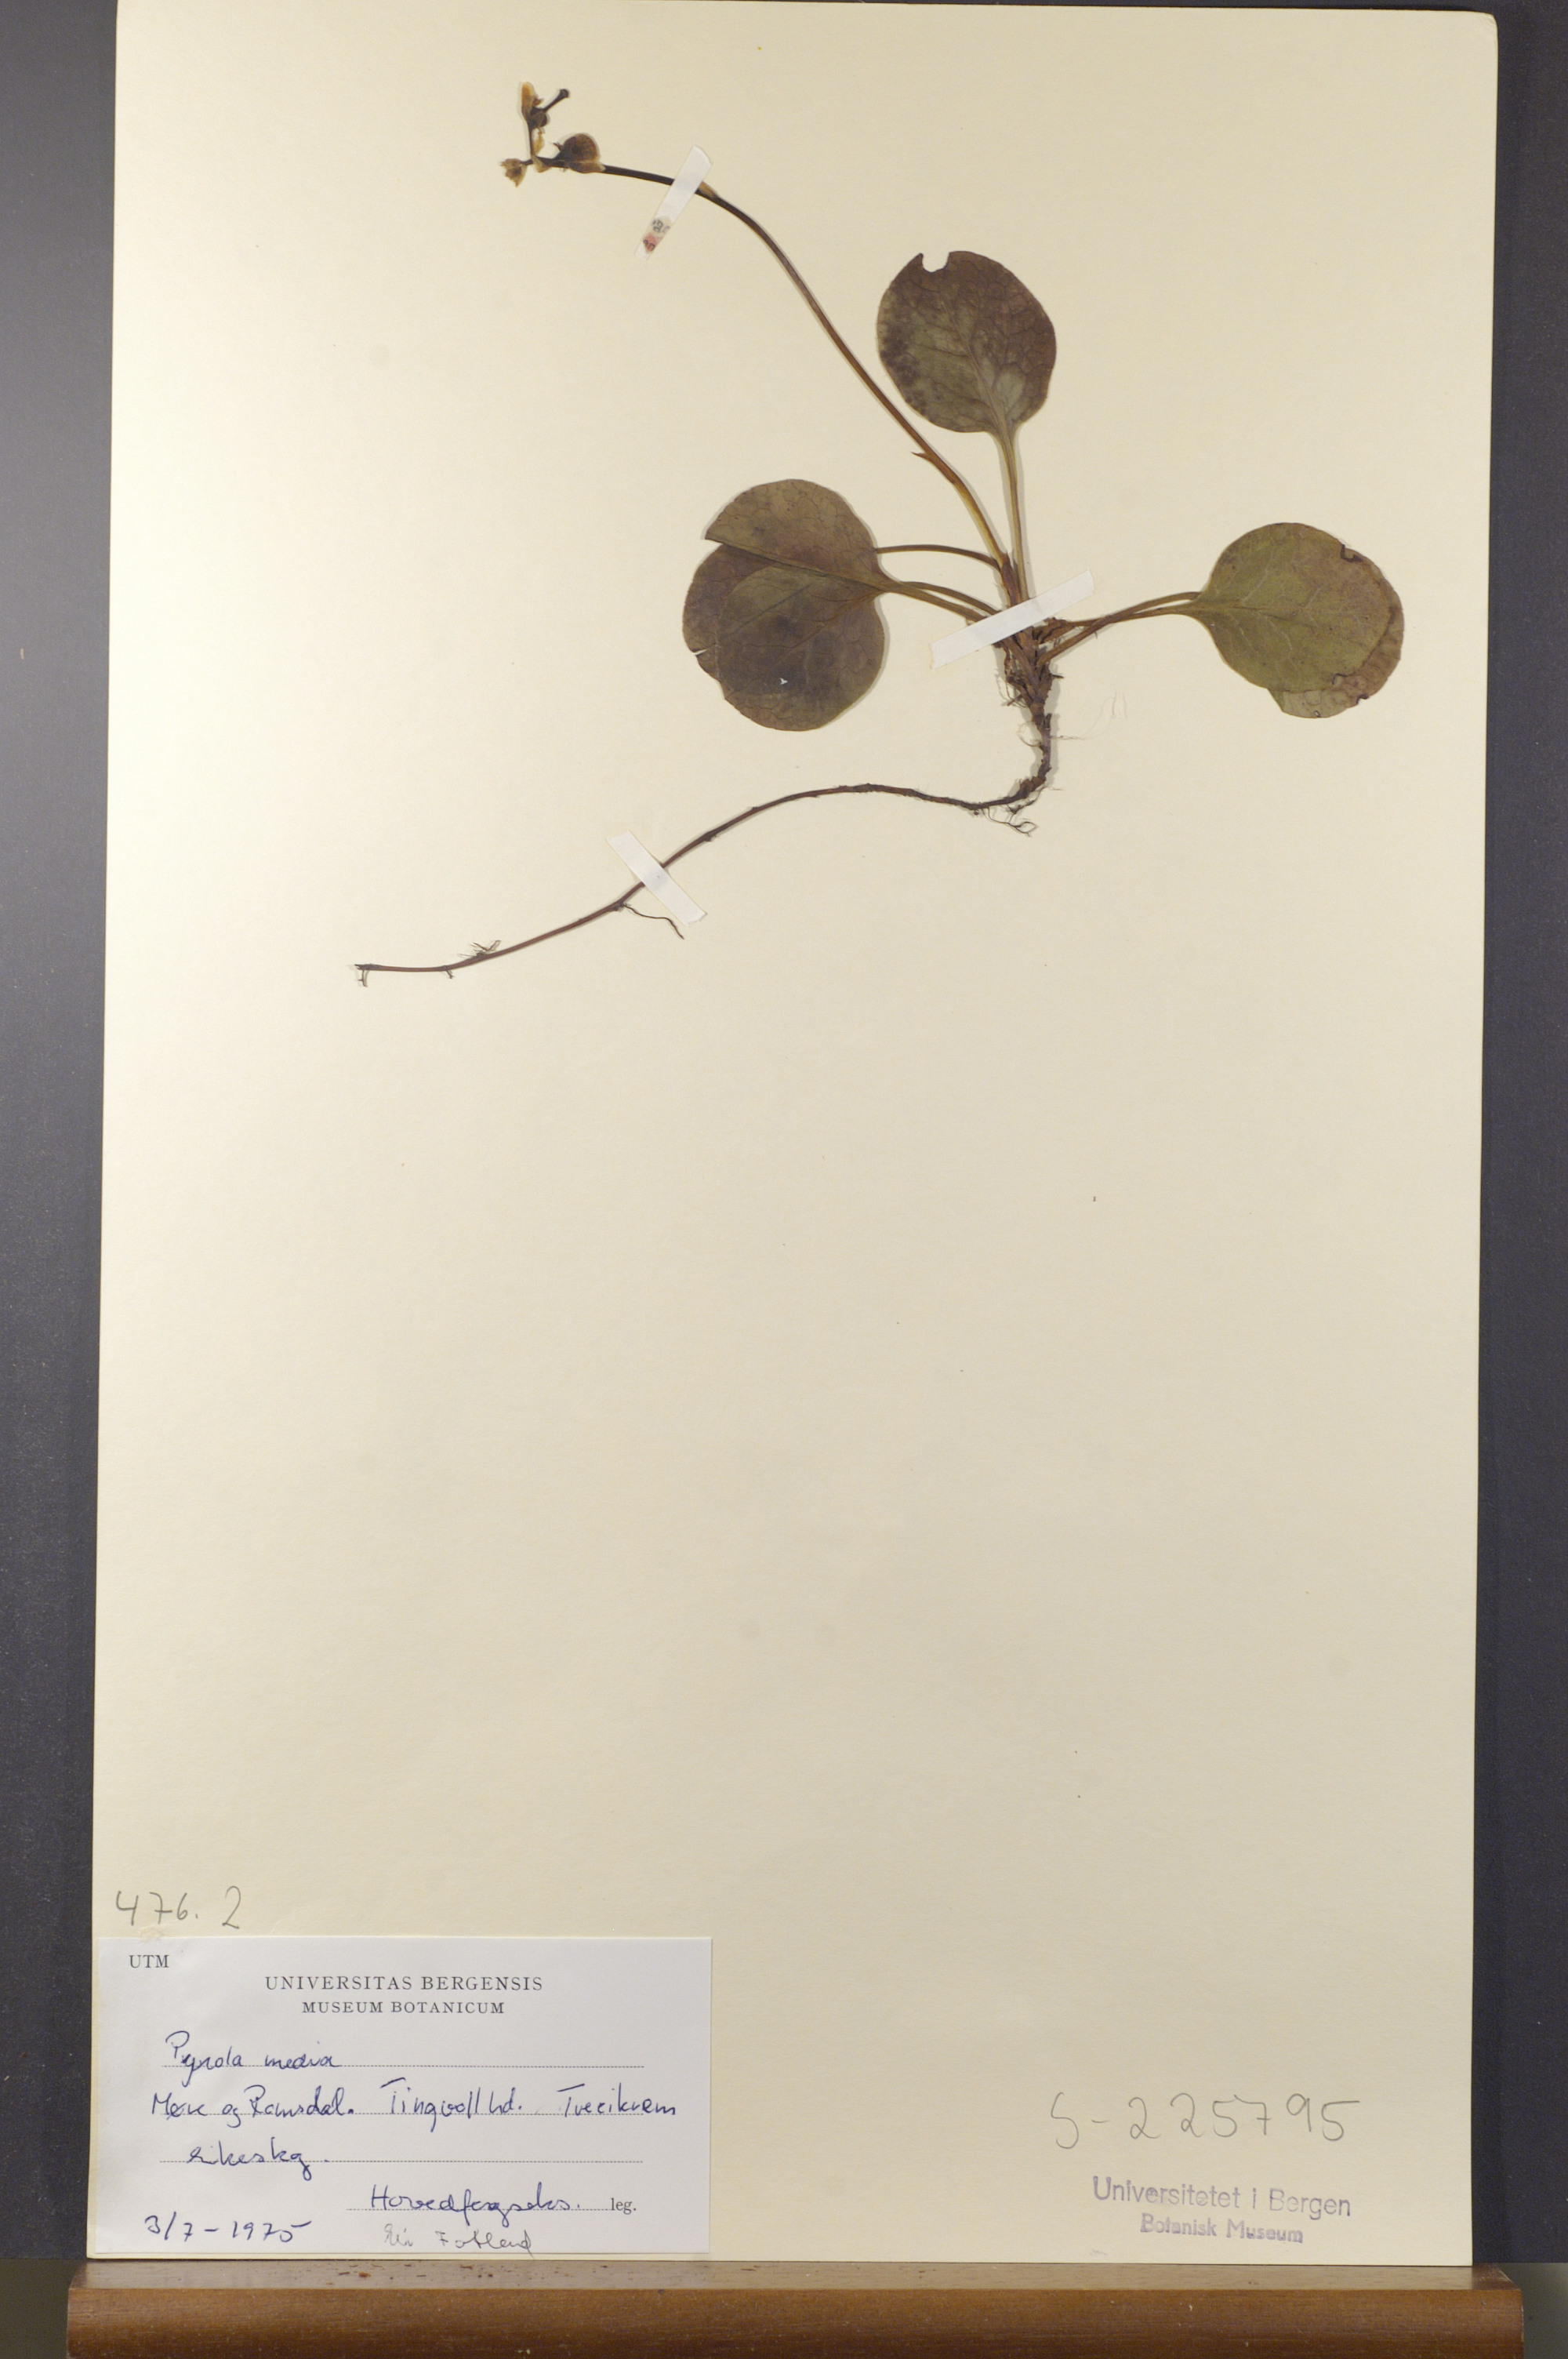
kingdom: Plantae
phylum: Tracheophyta
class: Magnoliopsida
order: Ericales
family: Ericaceae
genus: Pyrola
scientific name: Pyrola media
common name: Intermediate wintergreen
